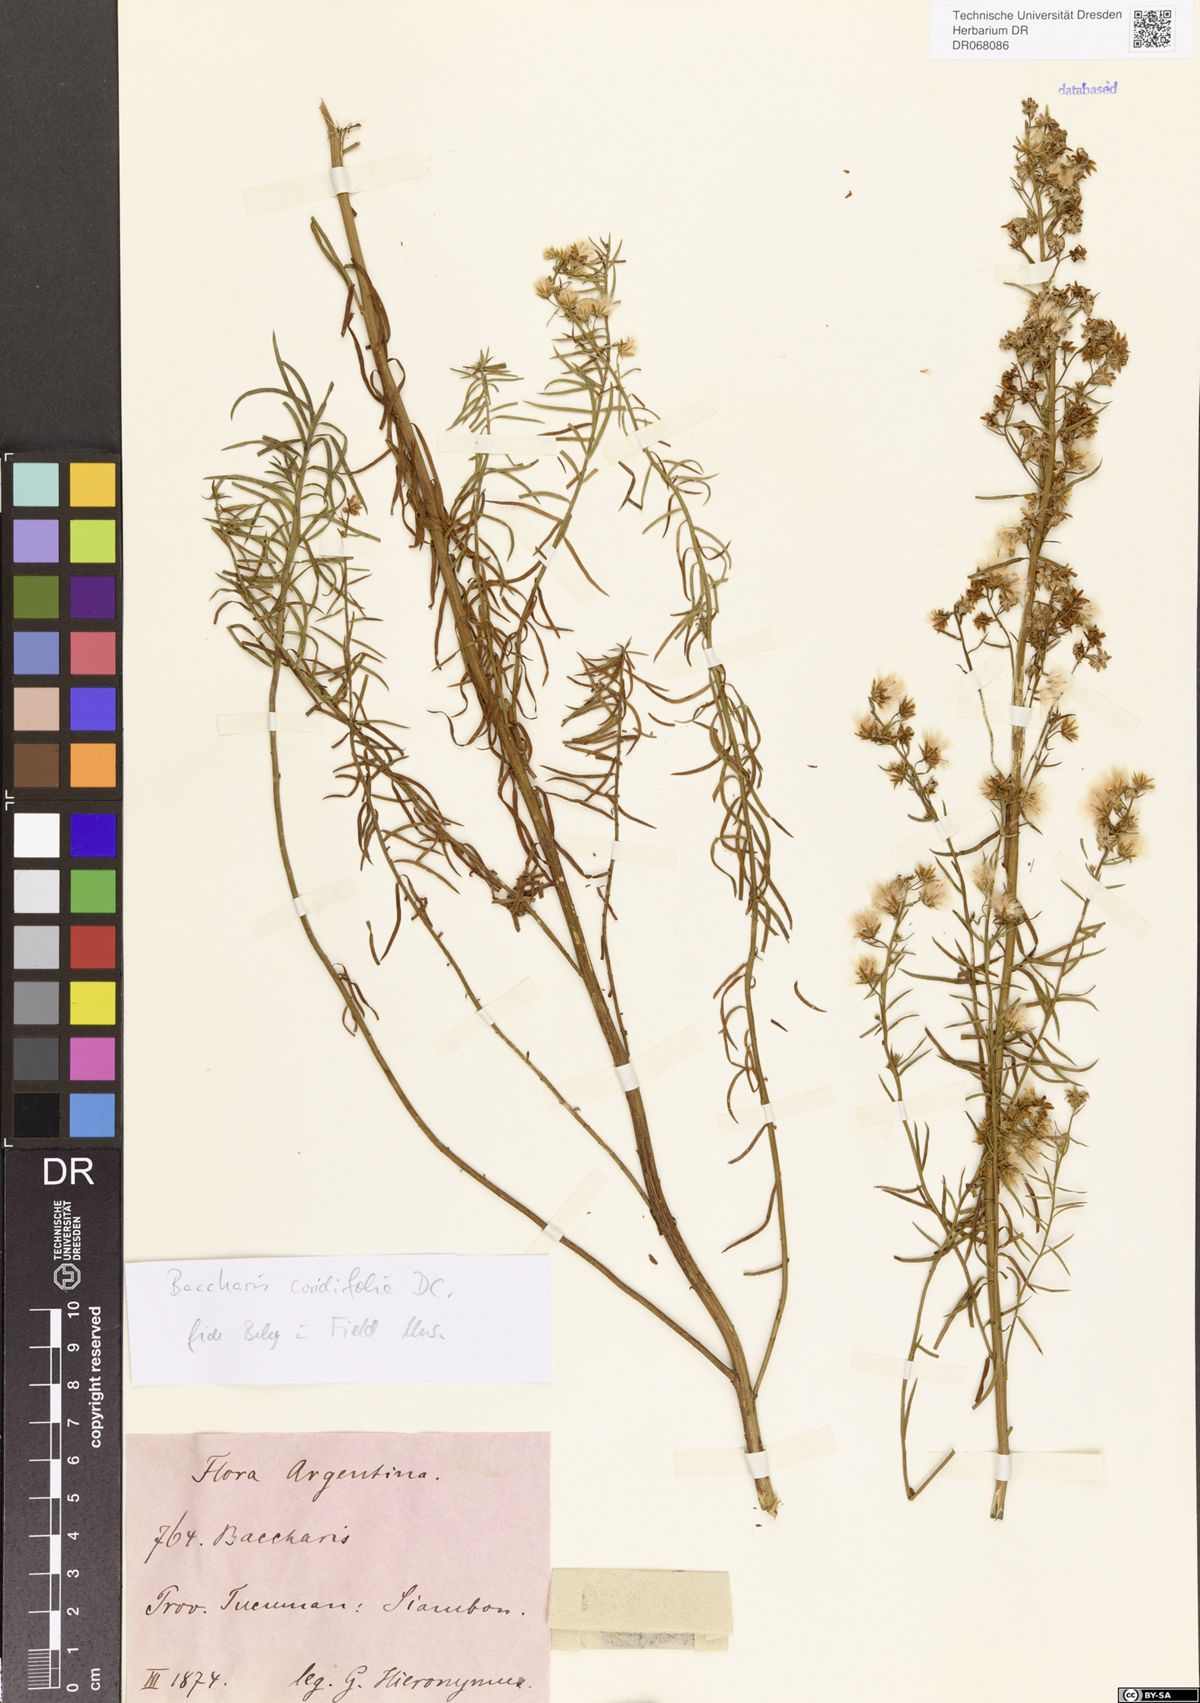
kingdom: Plantae
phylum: Tracheophyta
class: Magnoliopsida
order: Asterales
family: Asteraceae
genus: Baccharis
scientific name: Baccharis coridifolia
